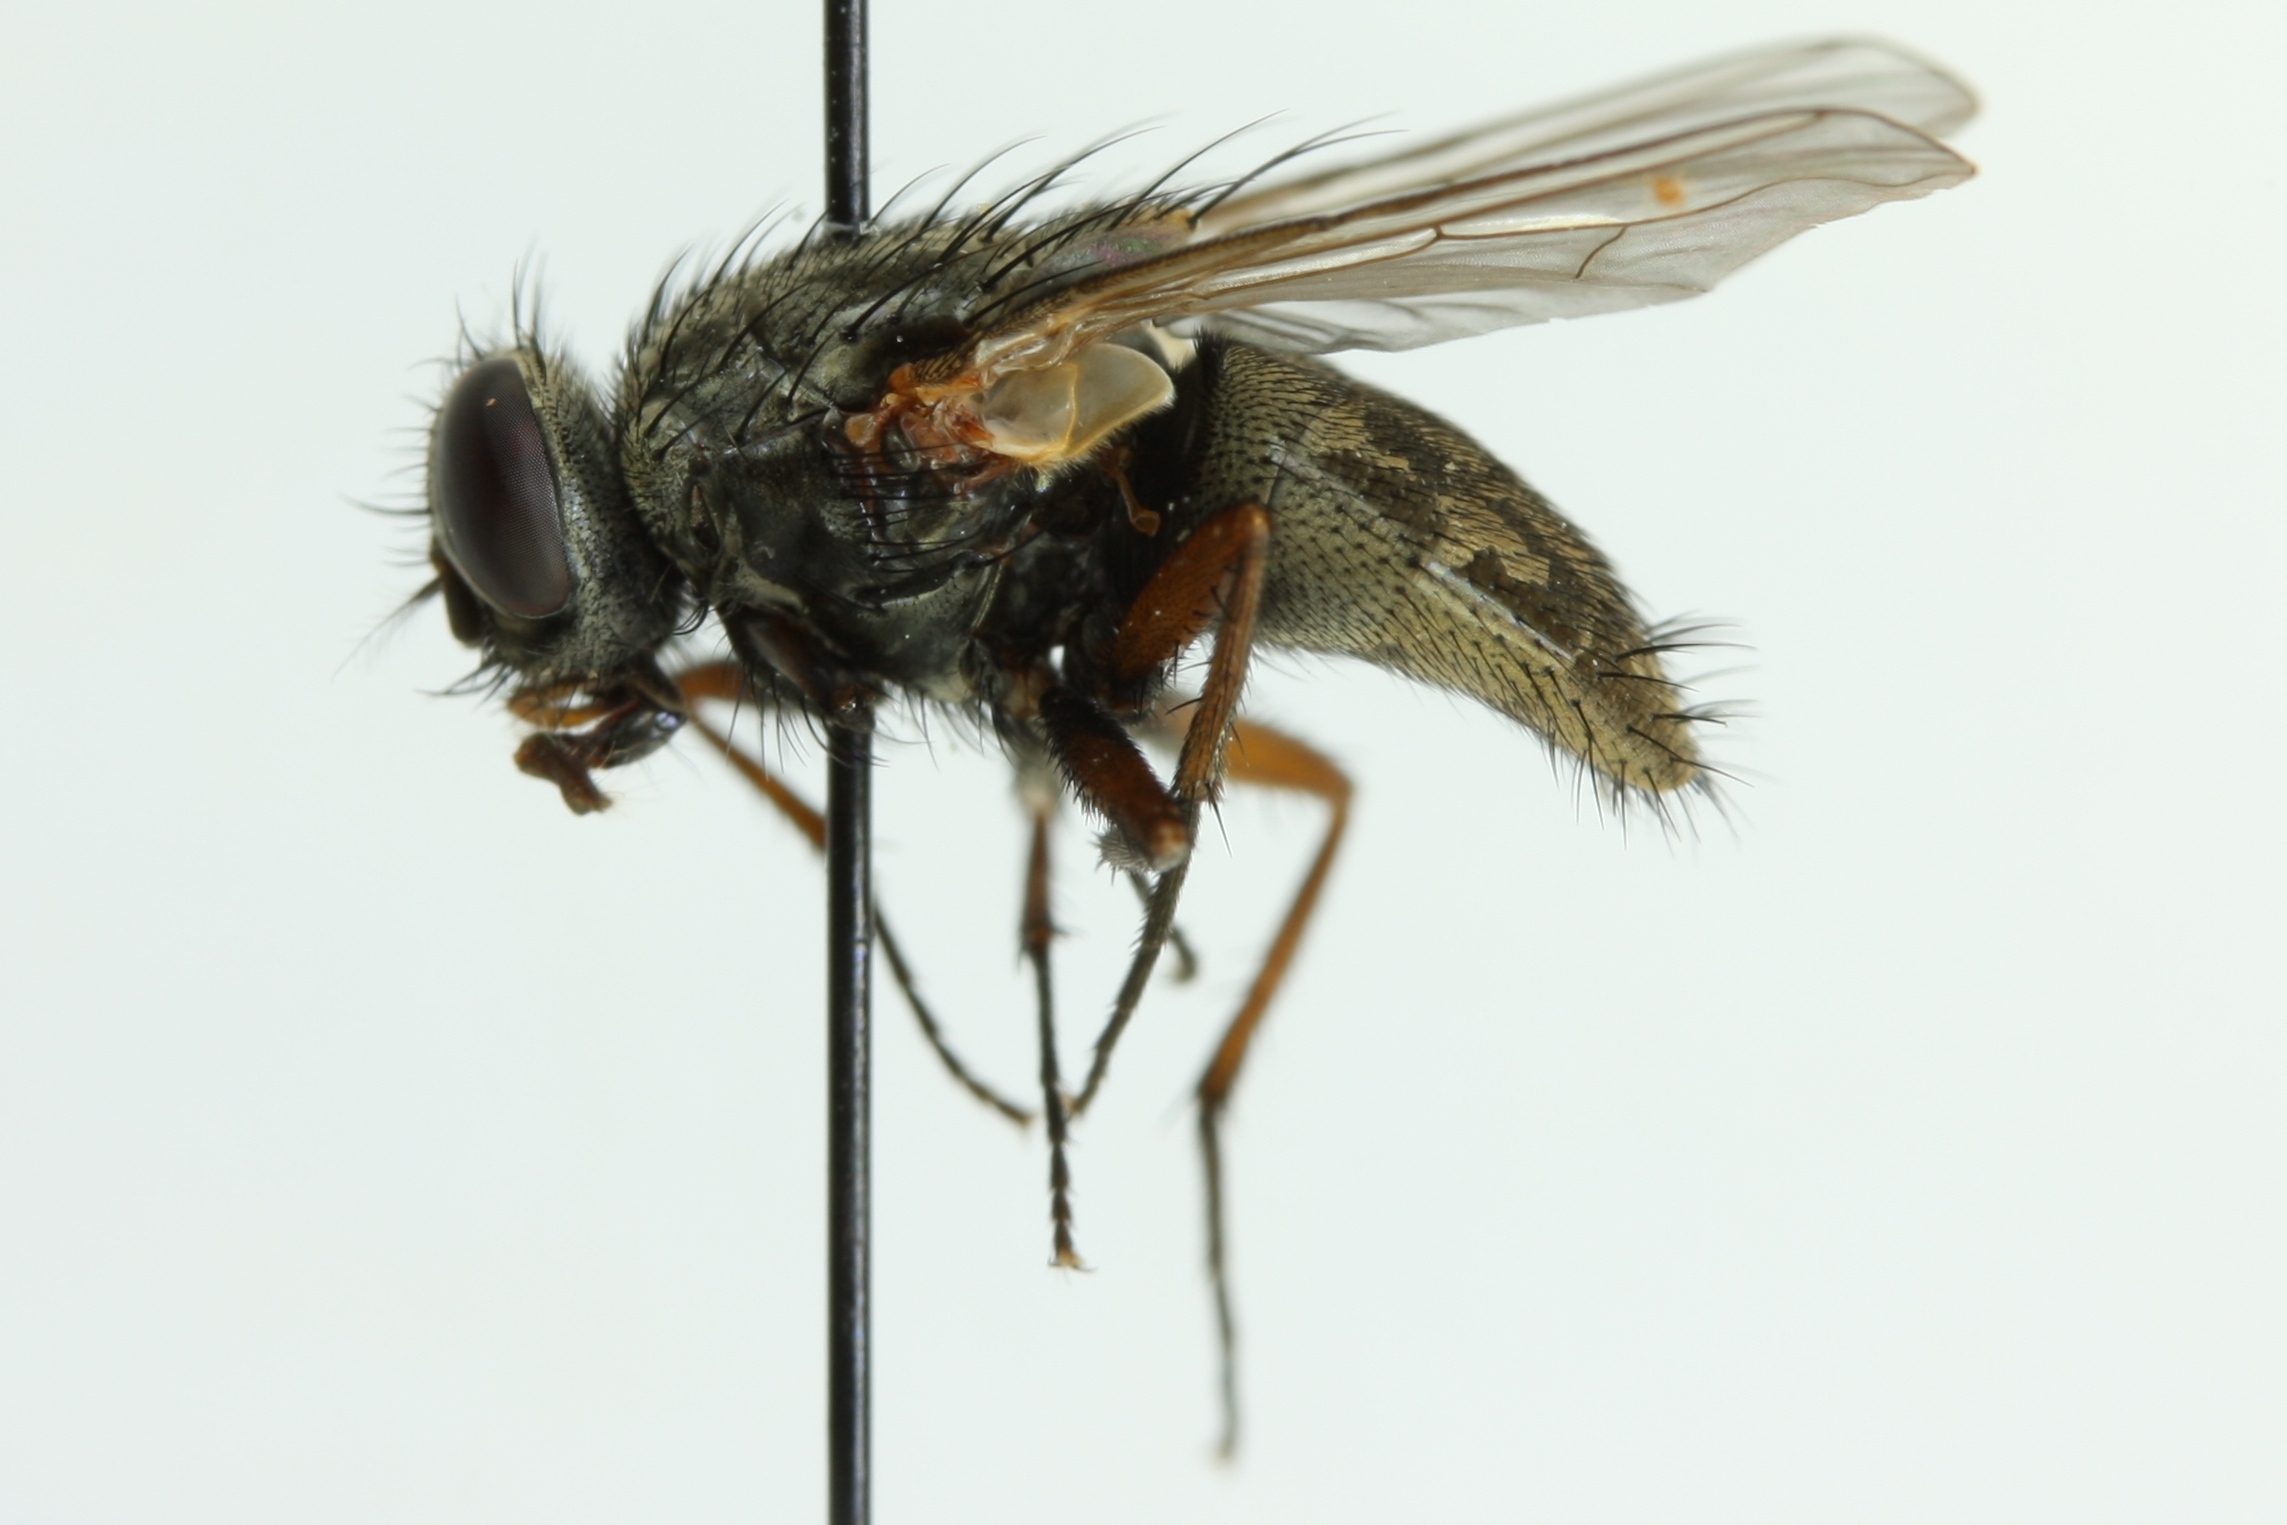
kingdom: Animalia
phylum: Arthropoda
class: Insecta
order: Diptera
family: Muscidae
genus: Muscina
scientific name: Muscina stabulans
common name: False stable fly
